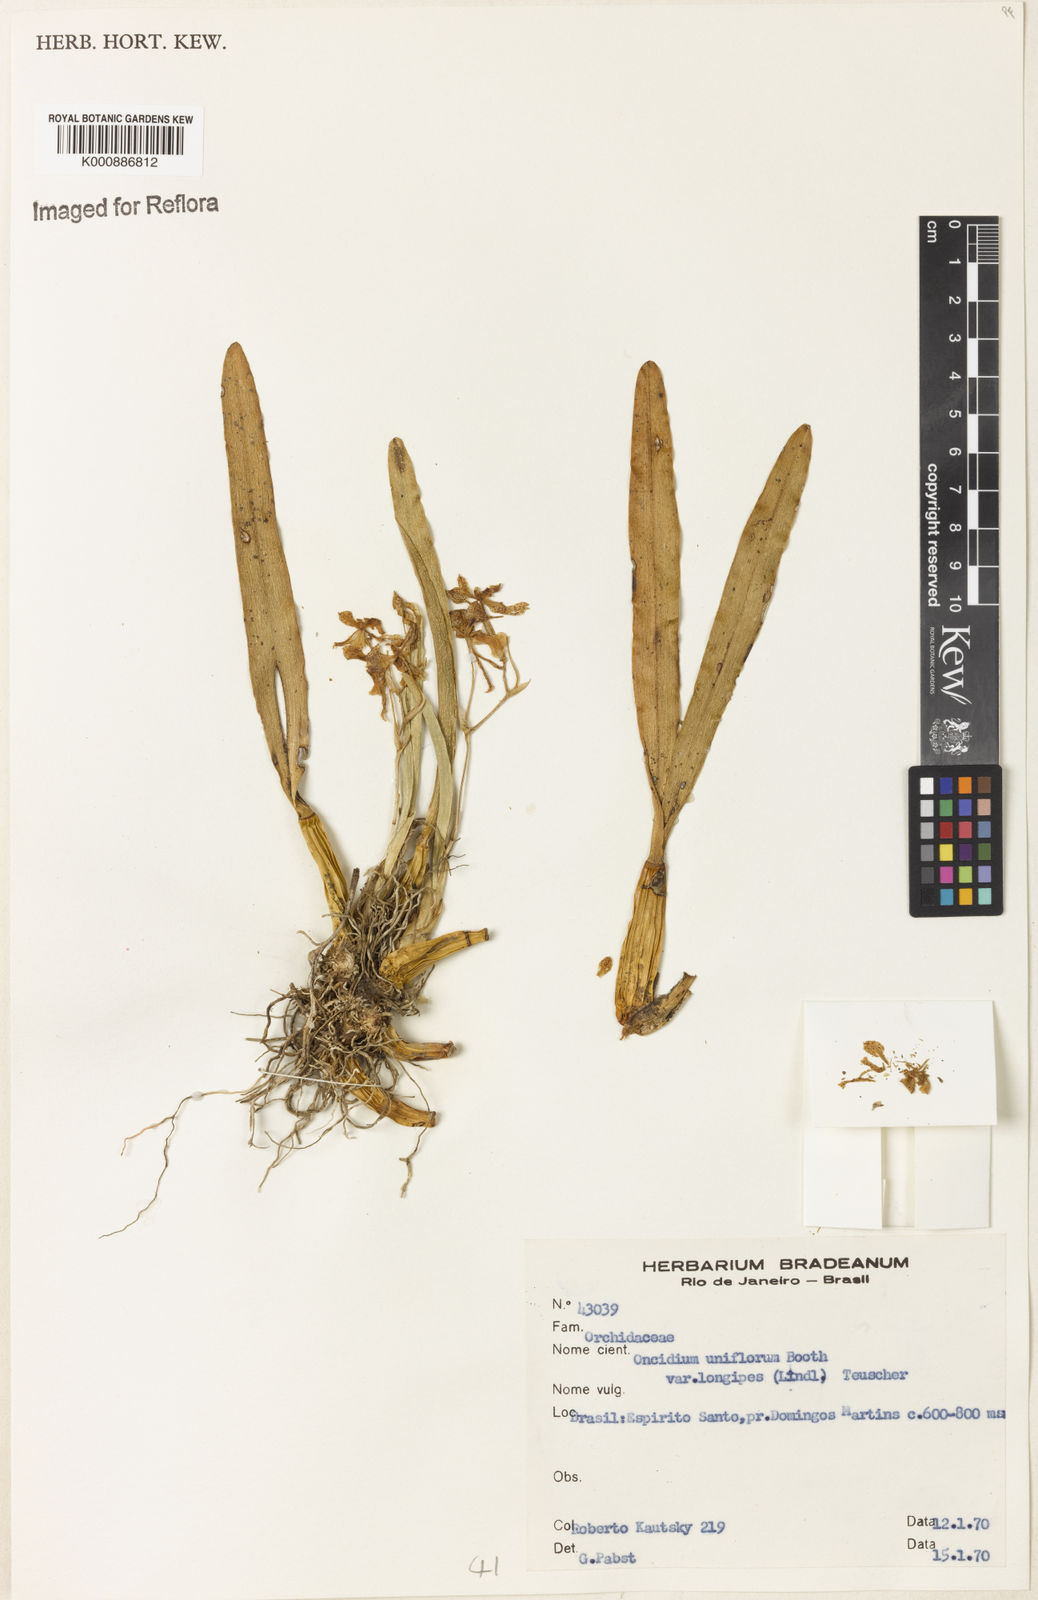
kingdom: Plantae
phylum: Tracheophyta
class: Liliopsida
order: Asparagales
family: Orchidaceae
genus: Gomesa
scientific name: Gomesa uniflora
